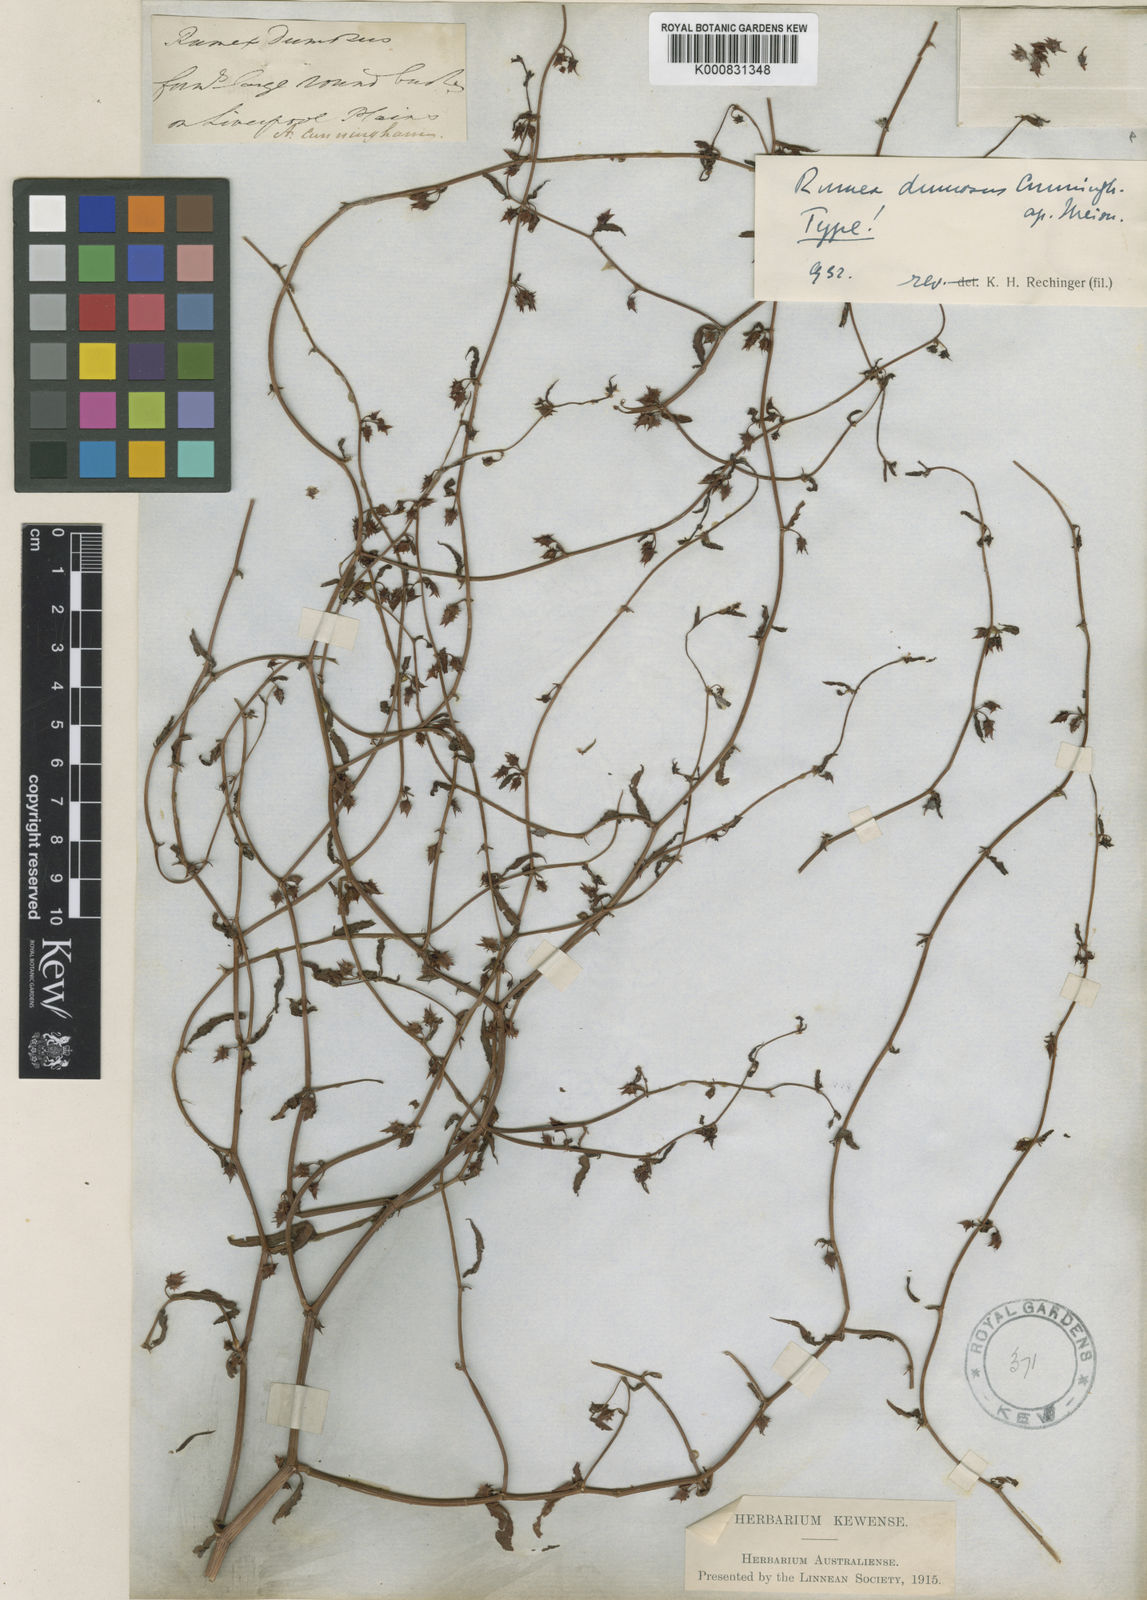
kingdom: Plantae
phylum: Tracheophyta
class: Magnoliopsida
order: Caryophyllales
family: Polygonaceae
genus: Rumex
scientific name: Rumex dumosus
